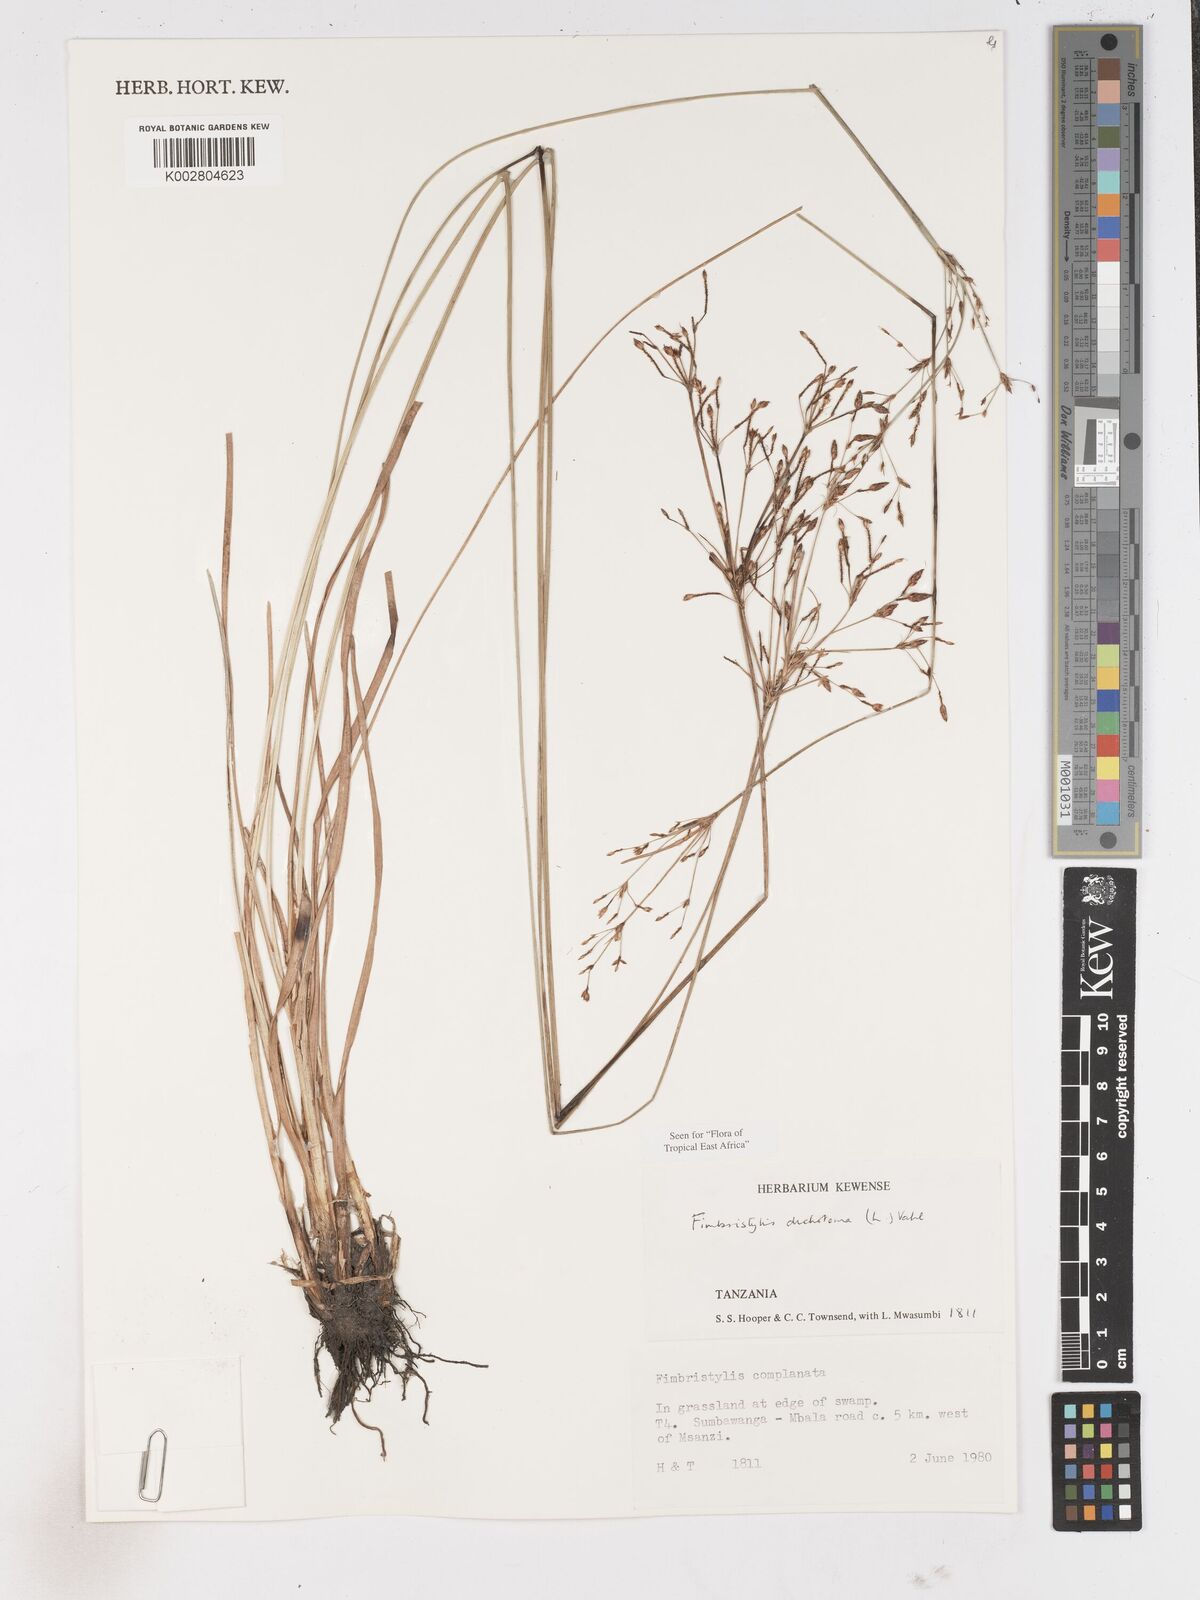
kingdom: Plantae
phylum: Tracheophyta
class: Liliopsida
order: Poales
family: Cyperaceae
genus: Fimbristylis
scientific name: Fimbristylis dichotoma
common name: Forked fimbry
